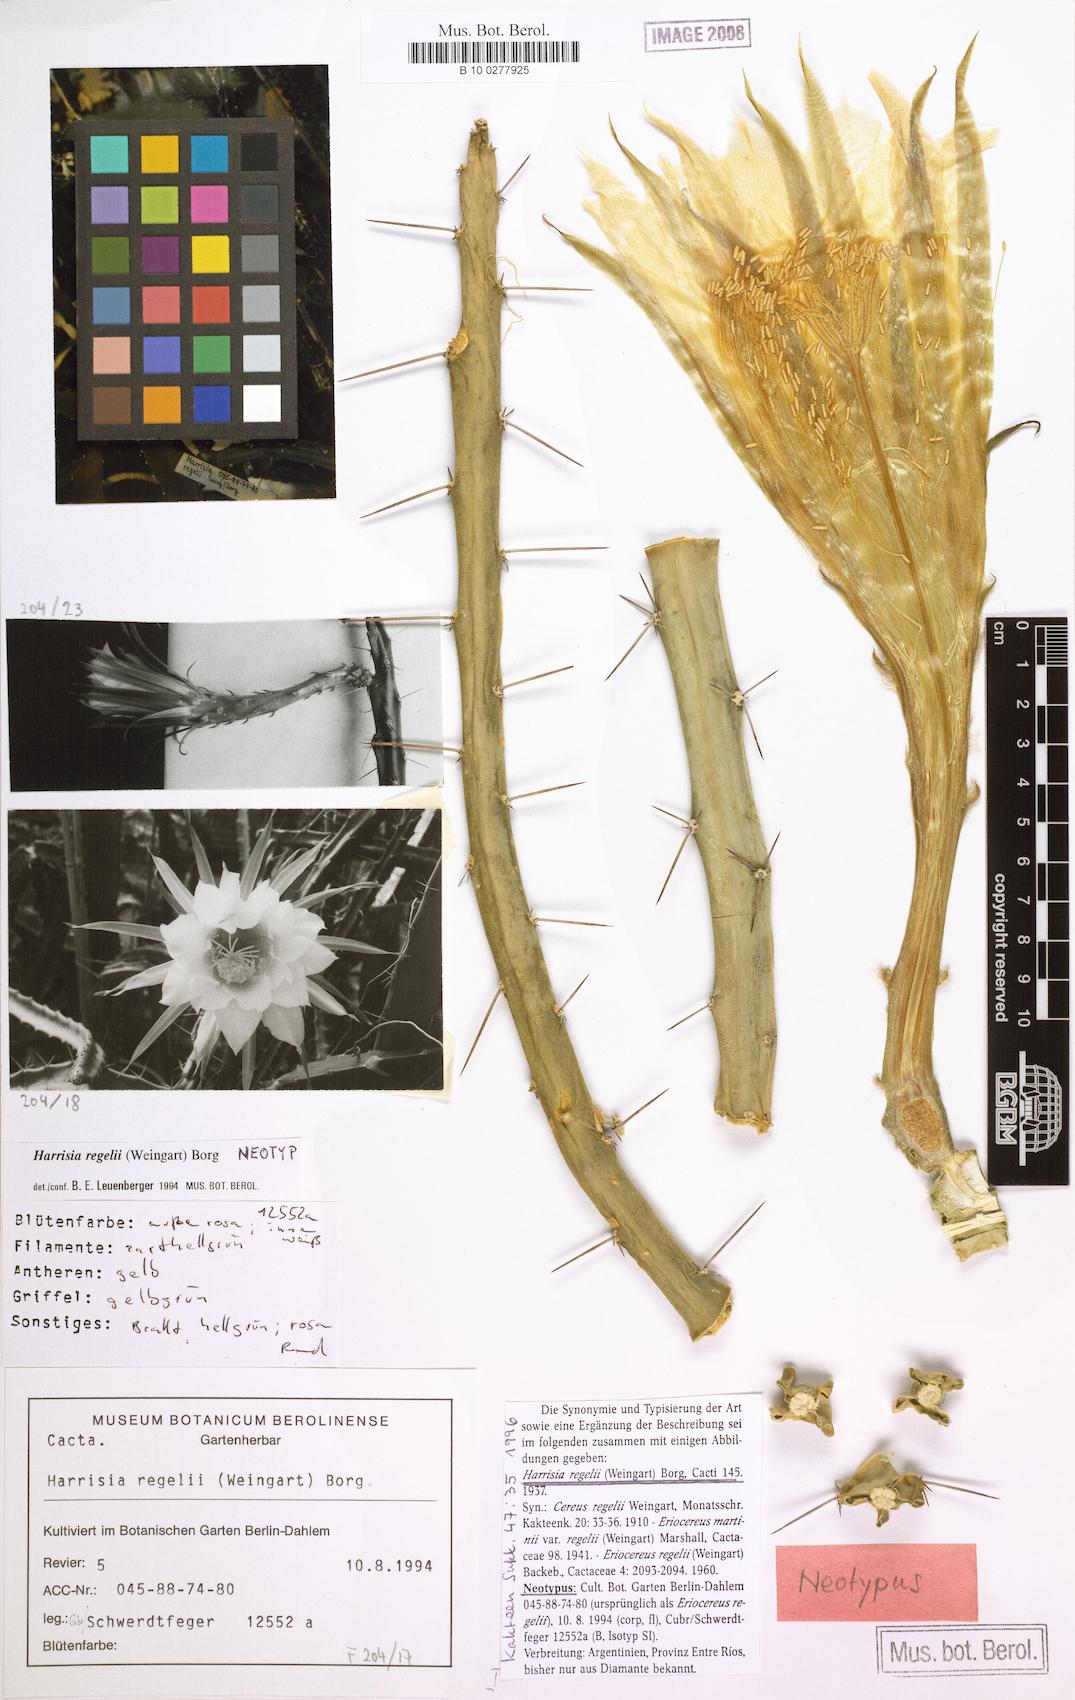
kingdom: Plantae
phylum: Tracheophyta
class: Magnoliopsida
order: Caryophyllales
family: Cactaceae
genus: Harrisia
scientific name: Harrisia regelii
